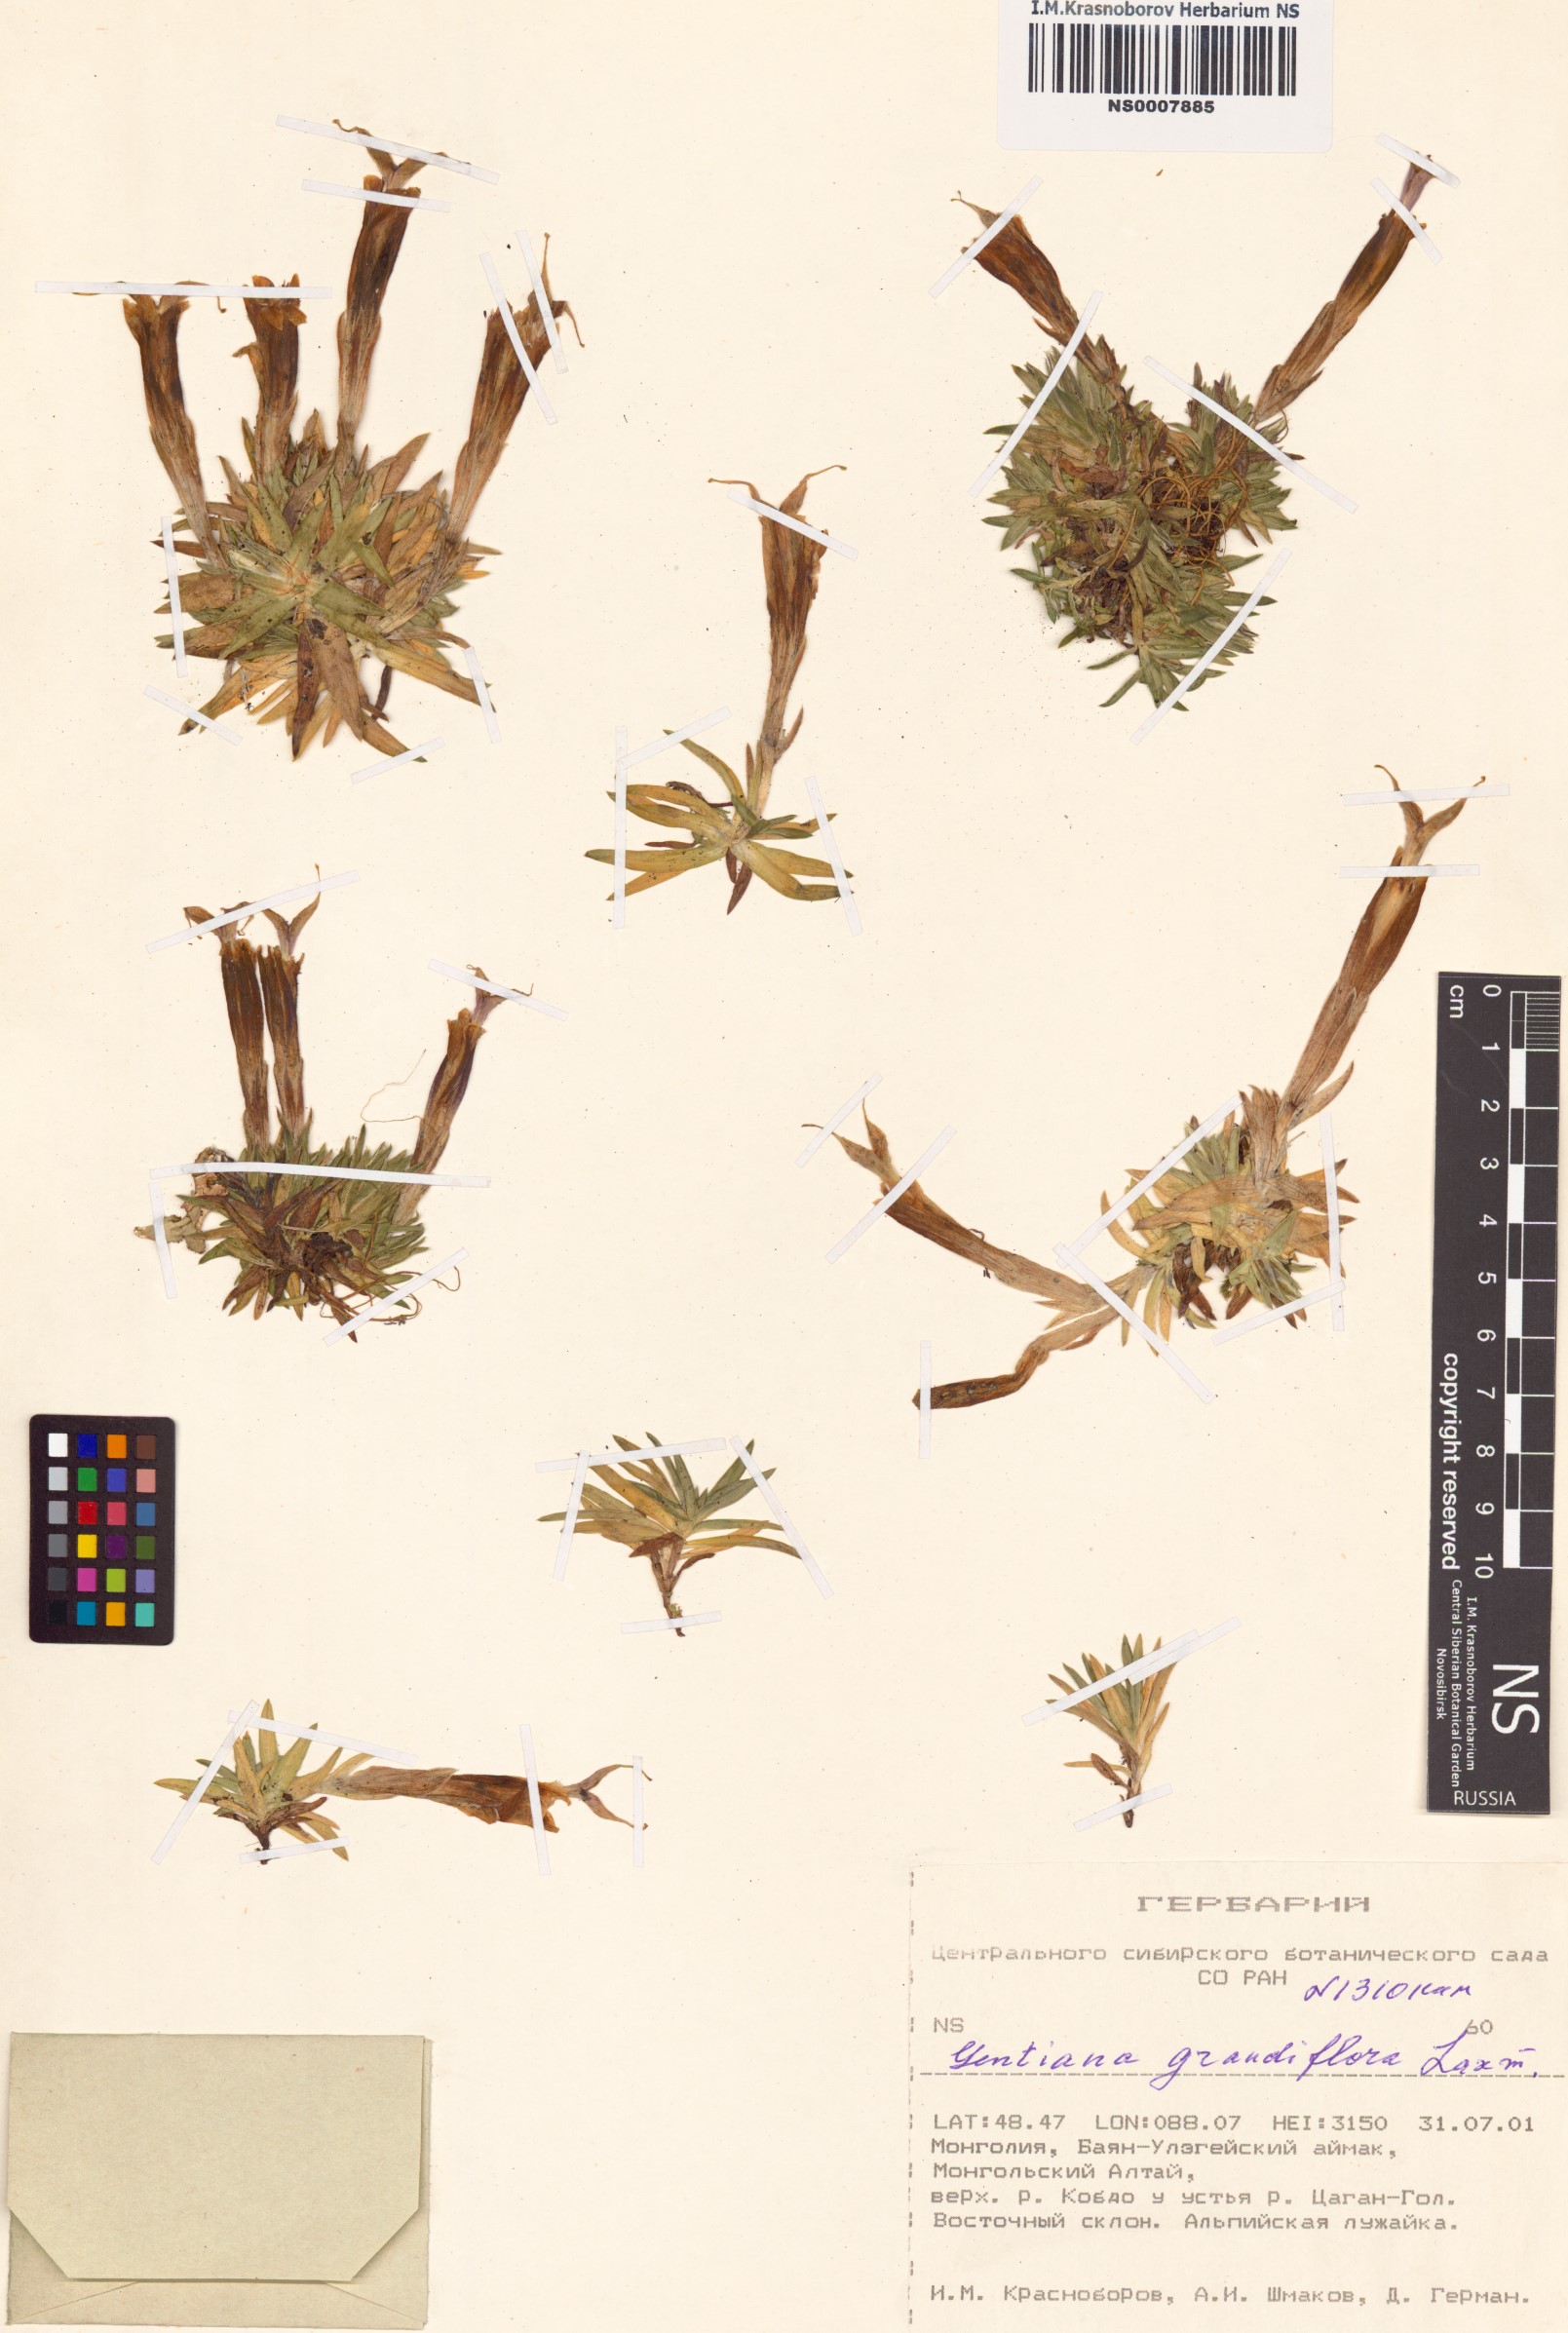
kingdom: Plantae
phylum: Tracheophyta
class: Magnoliopsida
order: Gentianales
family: Gentianaceae
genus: Gentiana
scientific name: Gentiana grandiflora
